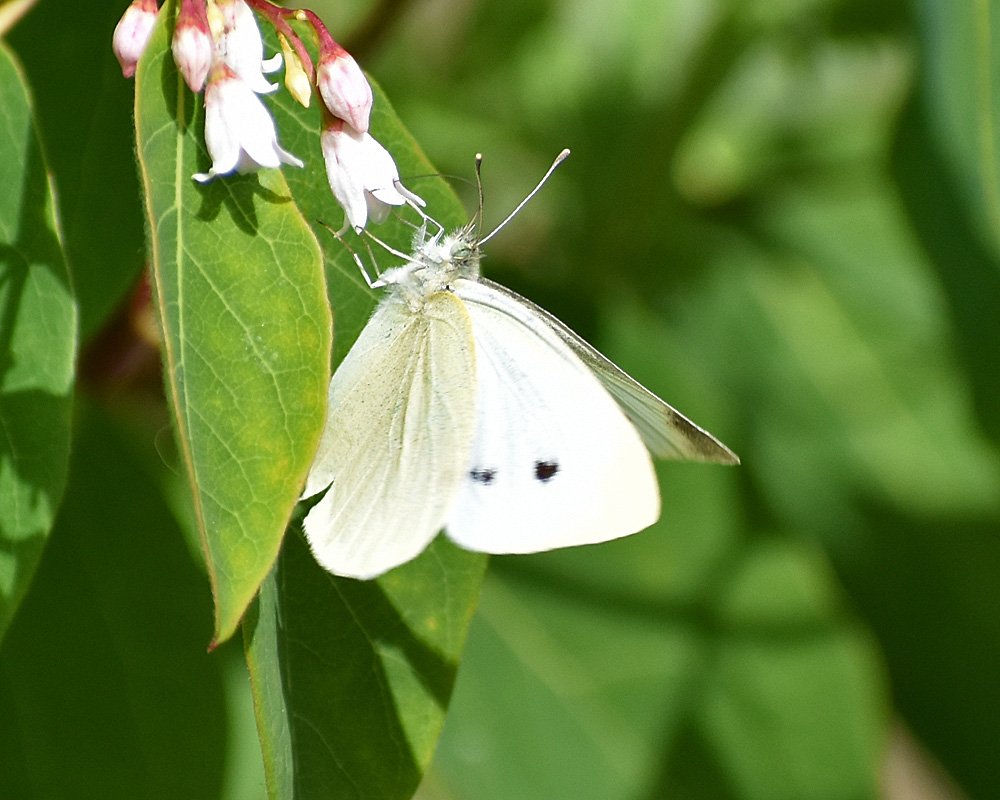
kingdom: Animalia
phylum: Arthropoda
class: Insecta
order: Lepidoptera
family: Pieridae
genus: Pieris
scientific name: Pieris rapae
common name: Cabbage White
